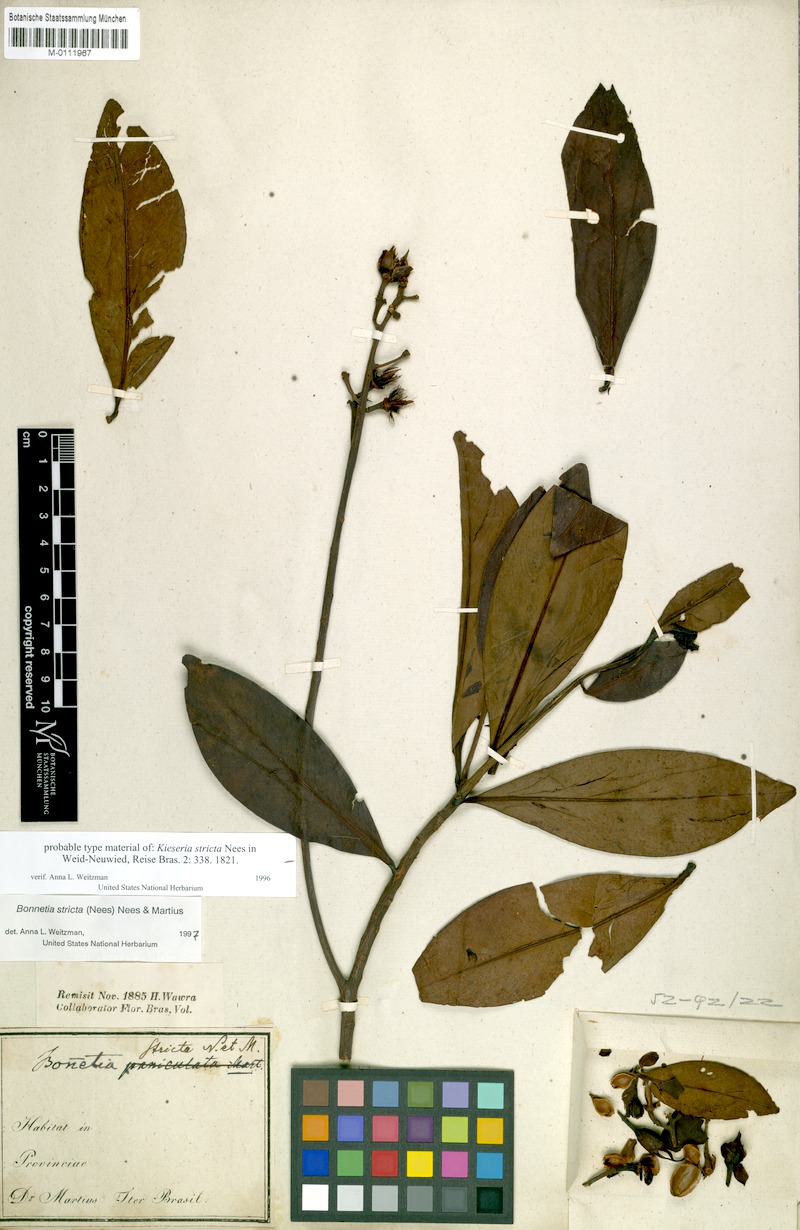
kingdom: Plantae
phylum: Tracheophyta
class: Magnoliopsida
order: Malpighiales
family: Bonnetiaceae
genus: Bonnetia
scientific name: Bonnetia stricta
